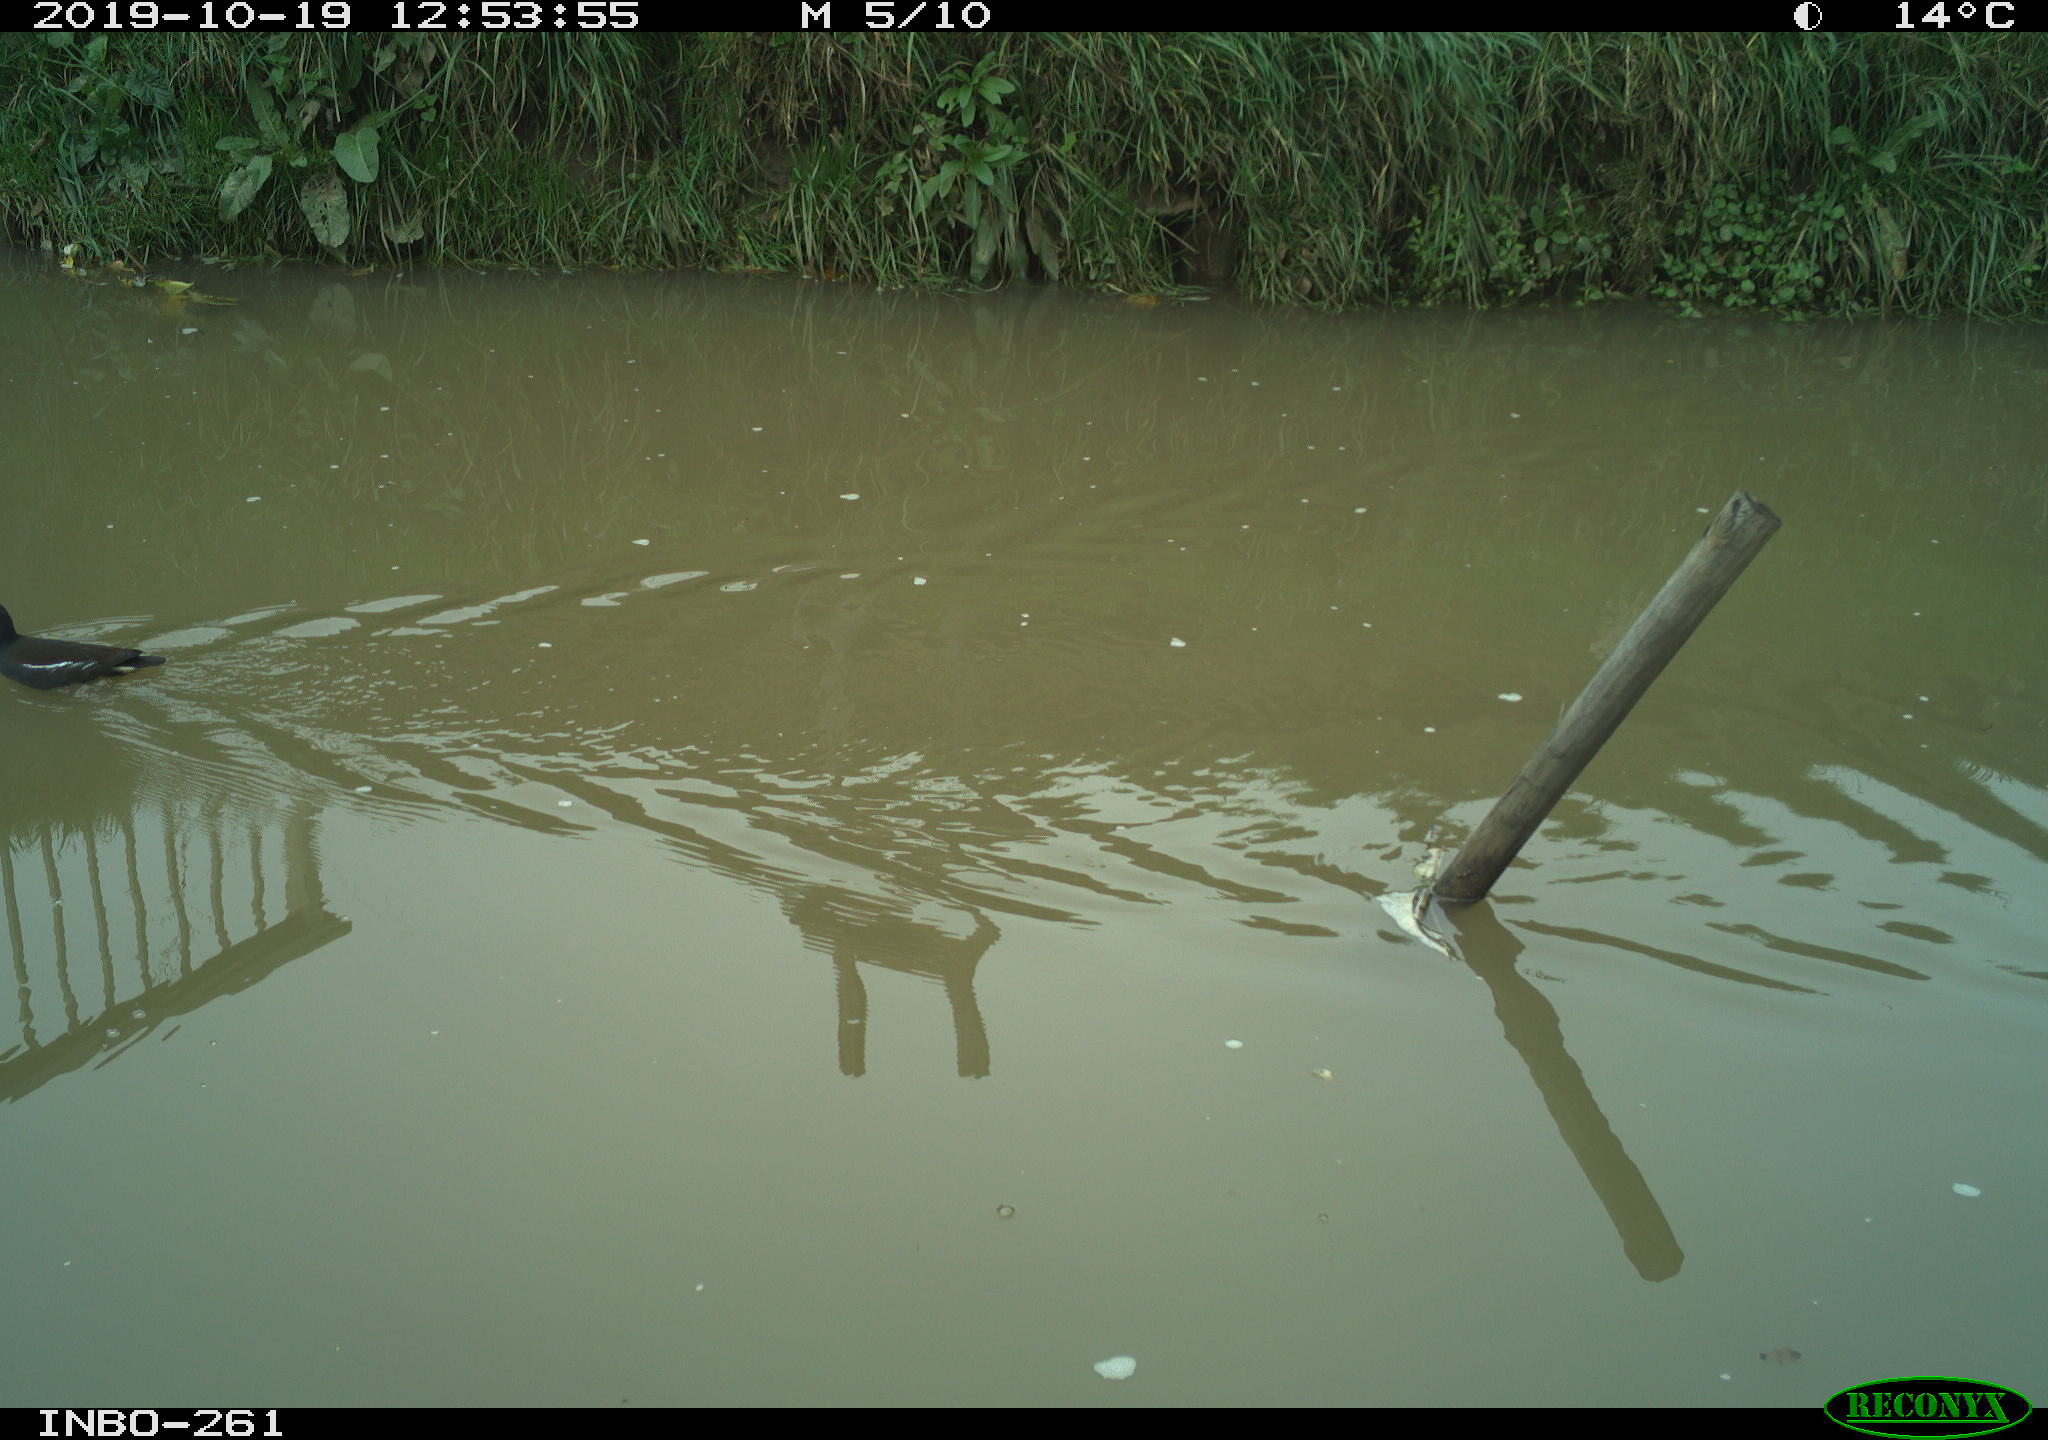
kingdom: Animalia
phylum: Chordata
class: Aves
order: Gruiformes
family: Rallidae
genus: Gallinula
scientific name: Gallinula chloropus
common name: Common moorhen
